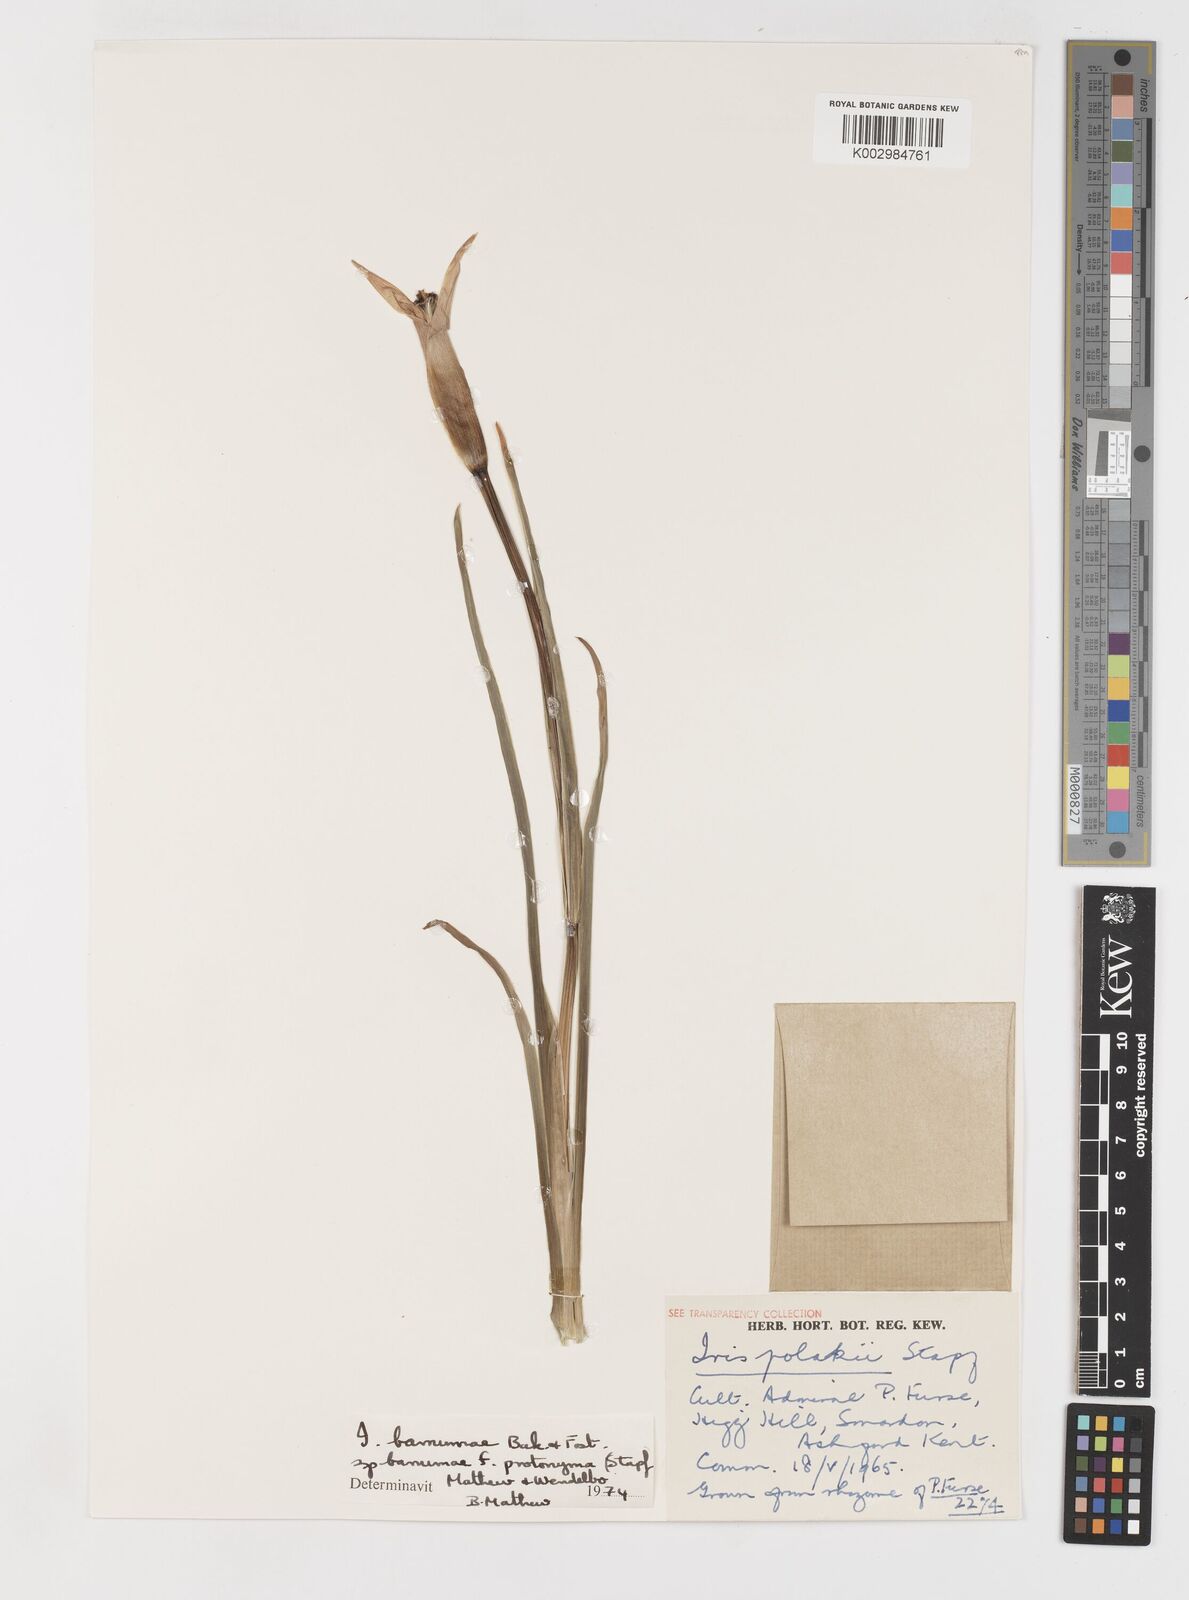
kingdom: Plantae
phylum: Tracheophyta
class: Liliopsida
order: Asparagales
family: Iridaceae
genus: Iris
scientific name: Iris polakii
